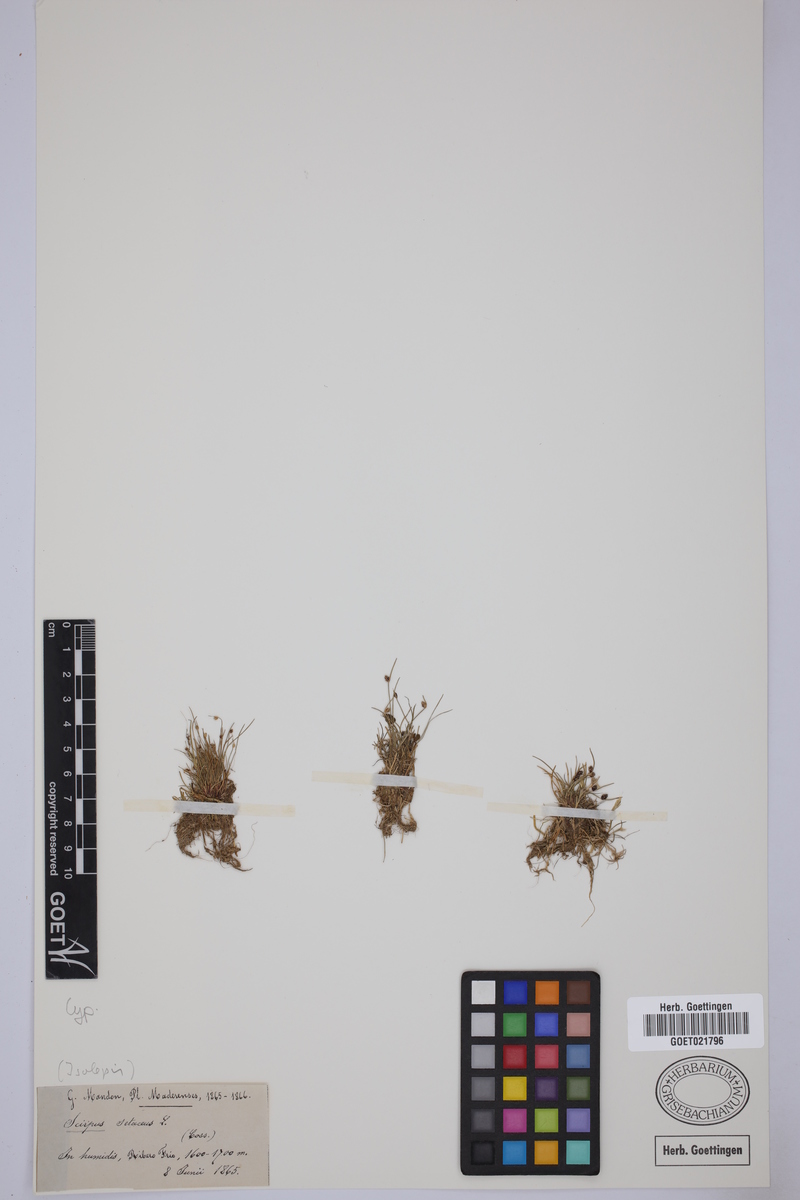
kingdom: Plantae
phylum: Tracheophyta
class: Liliopsida
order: Poales
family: Cyperaceae
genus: Isolepis
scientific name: Isolepis setacea
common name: Bristle club-rush
